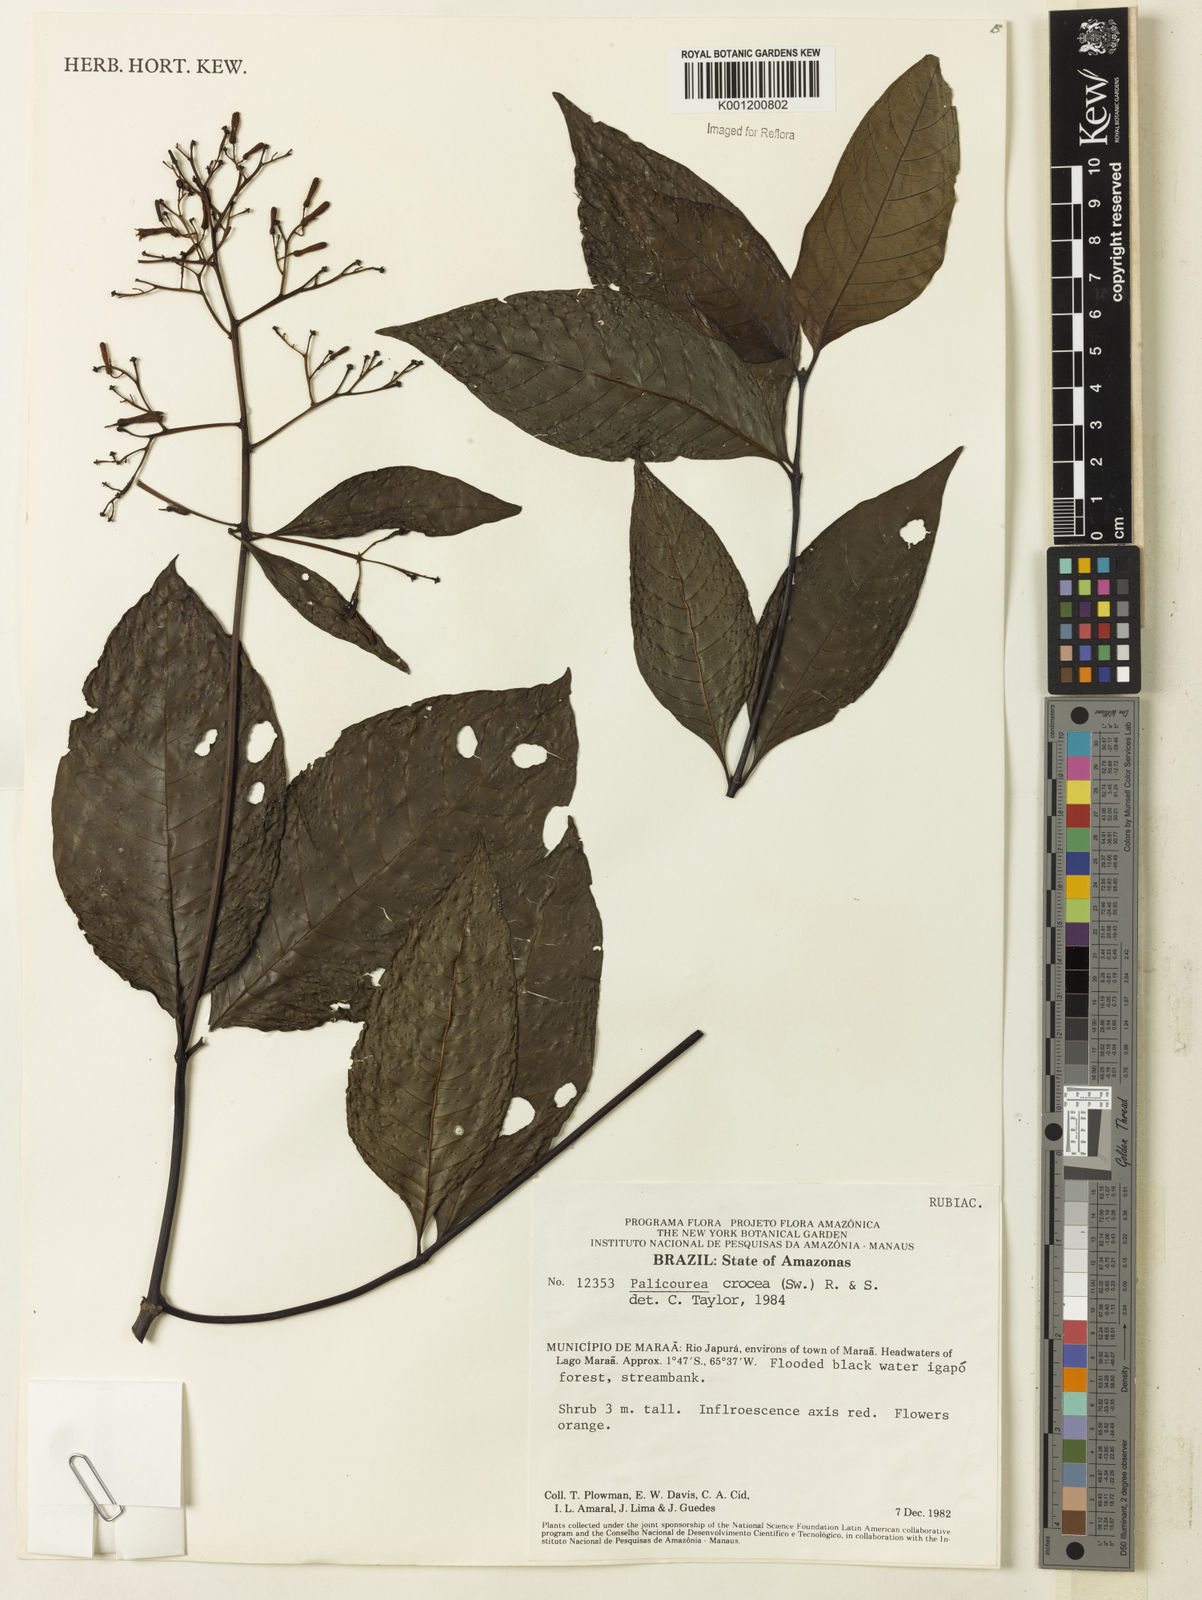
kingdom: Plantae
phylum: Tracheophyta
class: Magnoliopsida
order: Gentianales
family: Rubiaceae
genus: Palicourea
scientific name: Palicourea crocea
